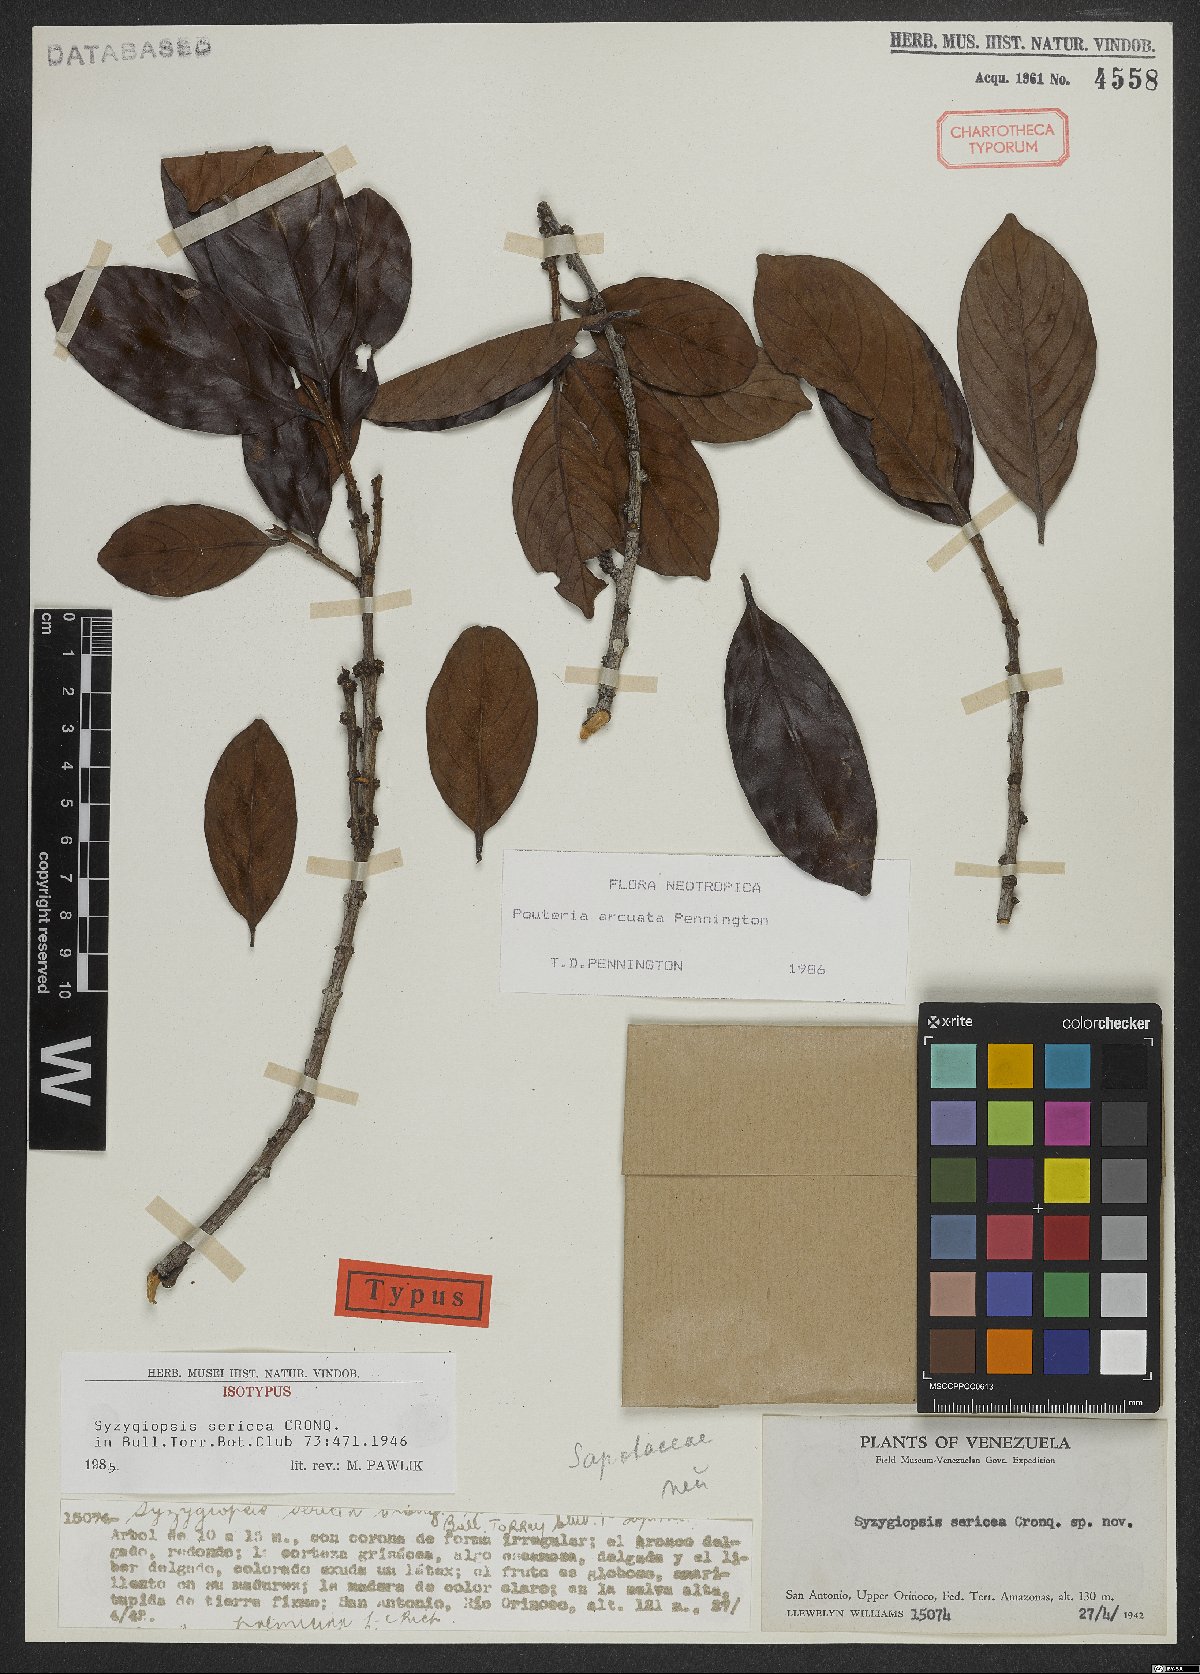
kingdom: Plantae
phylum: Tracheophyta
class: Magnoliopsida
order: Ericales
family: Sapotaceae
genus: Pouteria
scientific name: Pouteria arcuata
